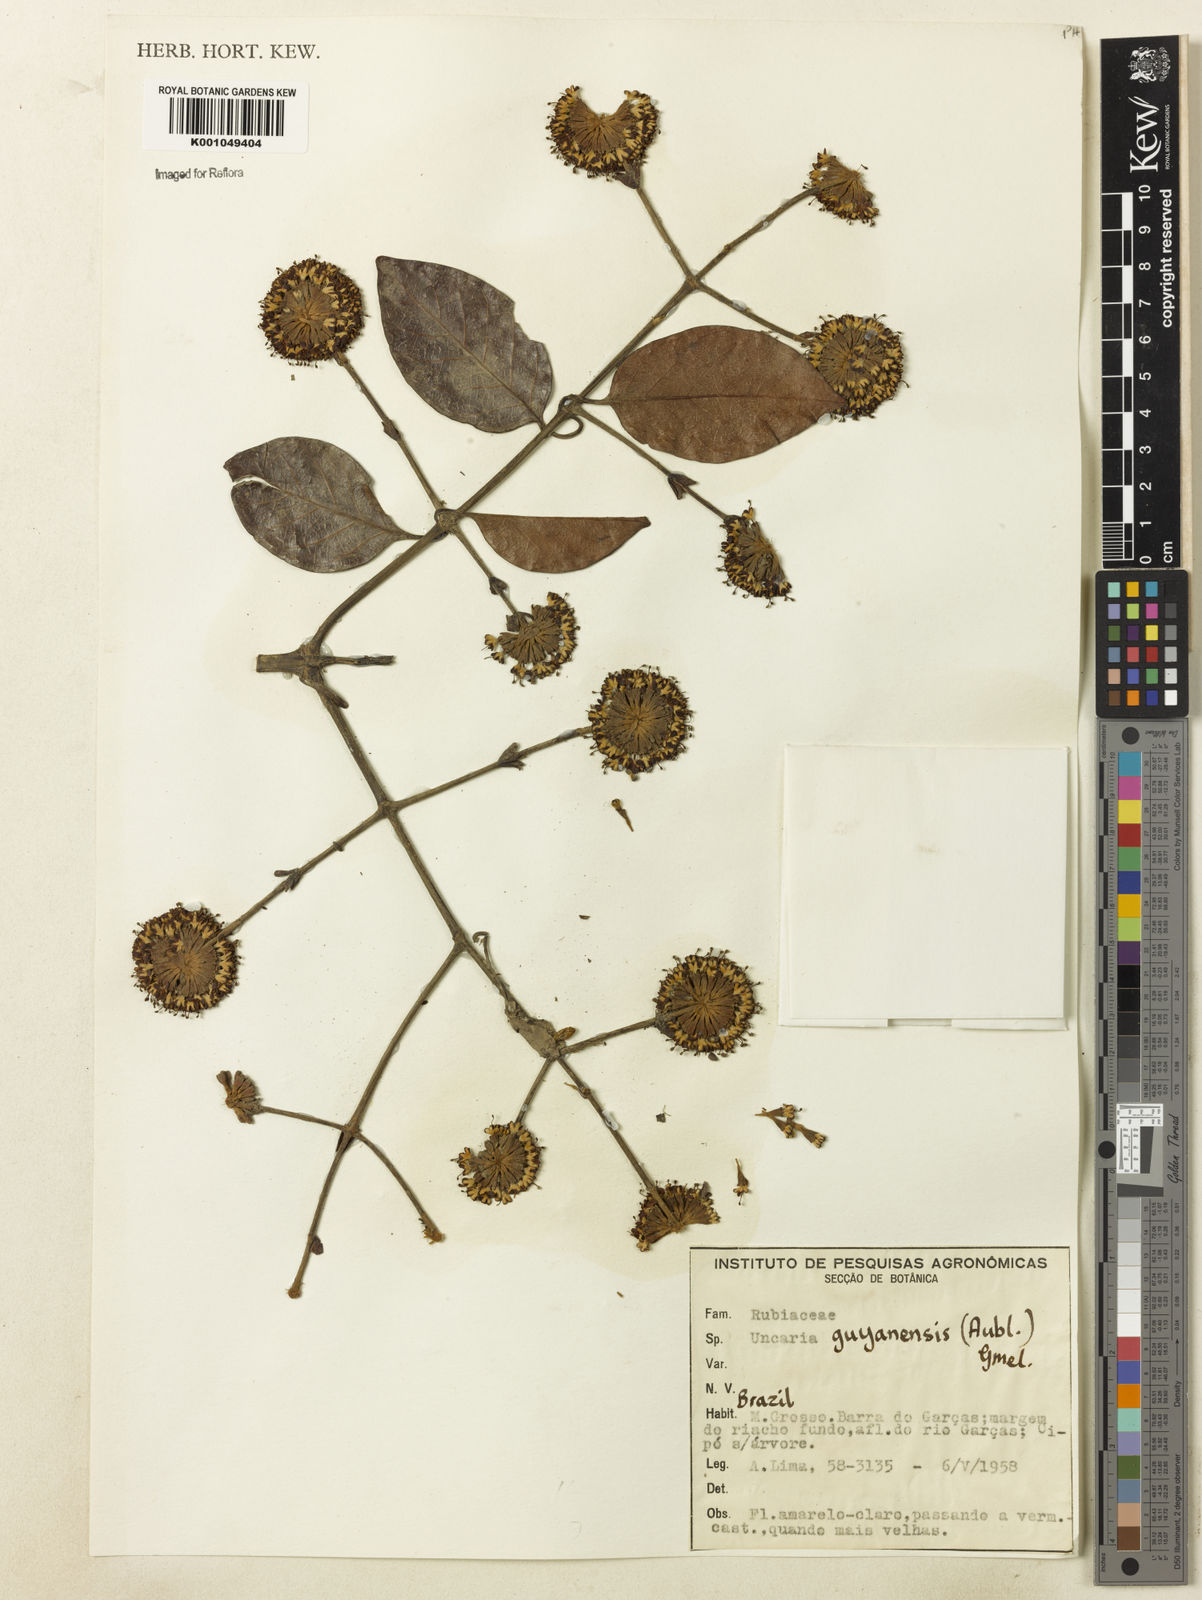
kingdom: Plantae
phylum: Tracheophyta
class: Magnoliopsida
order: Gentianales
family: Rubiaceae
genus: Uncaria
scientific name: Uncaria guianensis
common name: Cat's-claw
